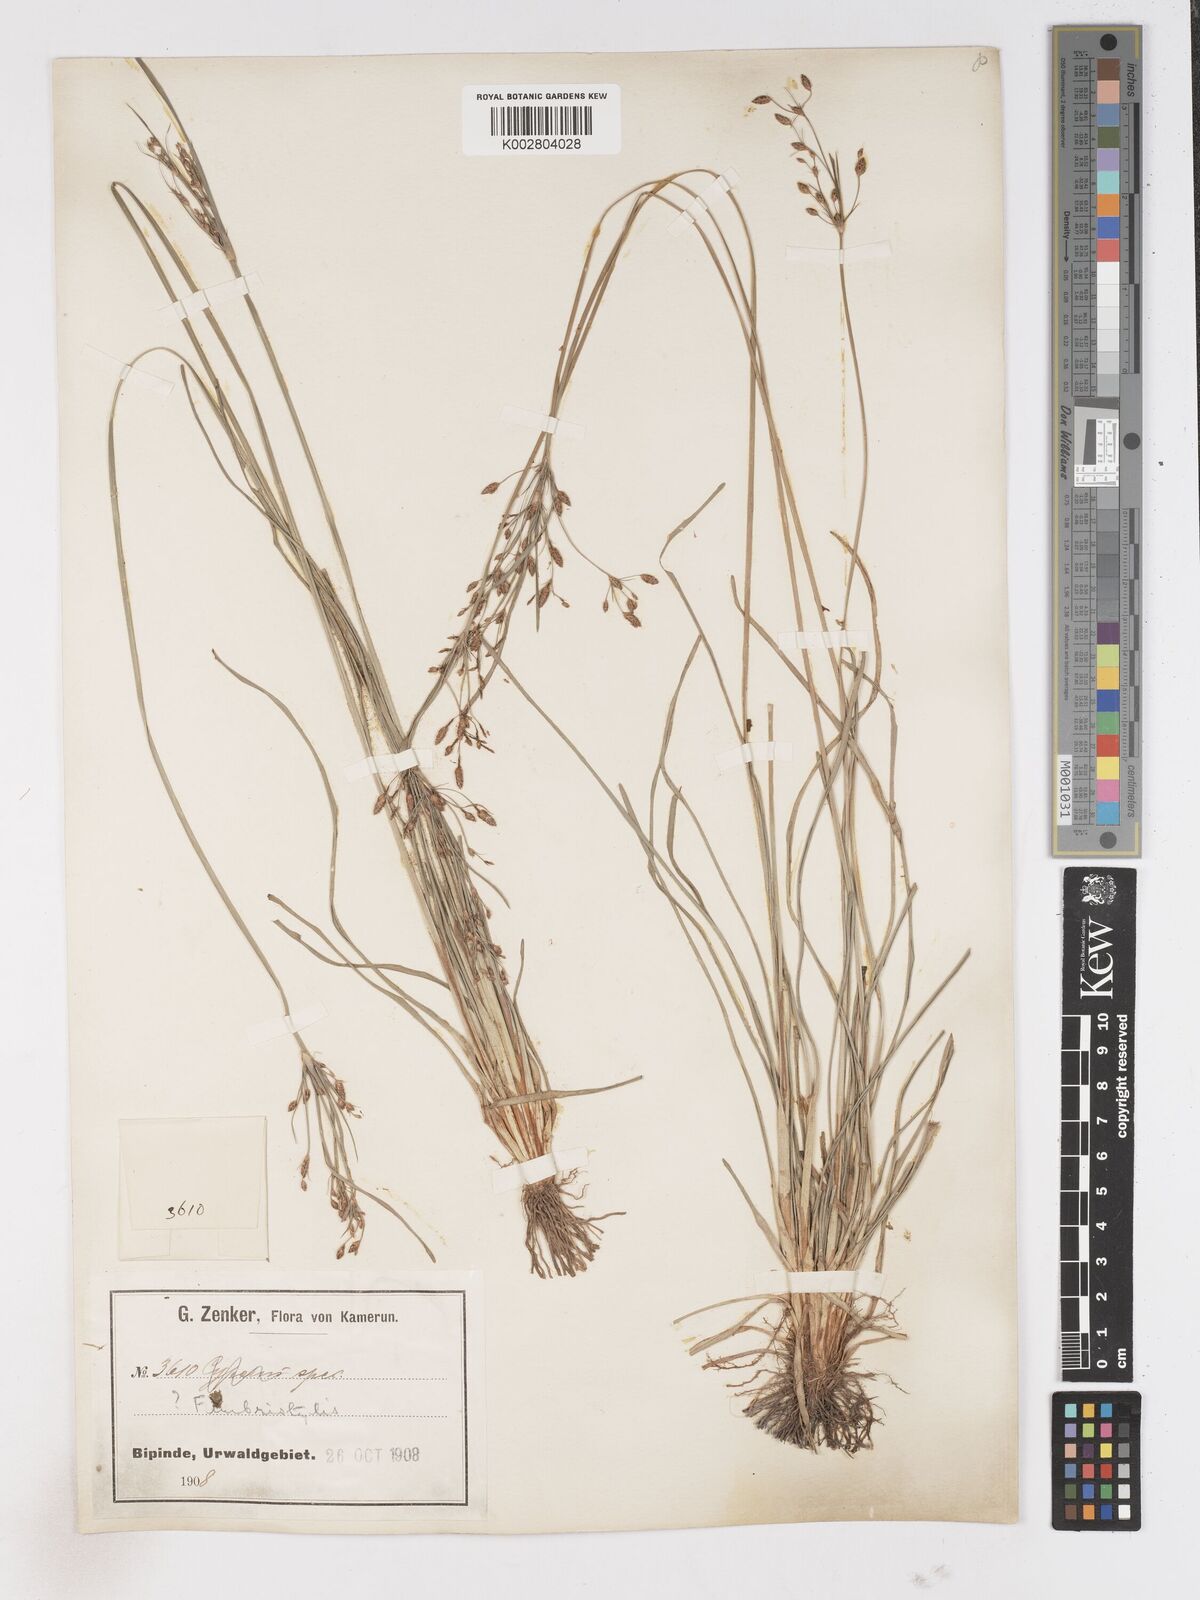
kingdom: Plantae
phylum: Tracheophyta
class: Liliopsida
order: Poales
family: Cyperaceae
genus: Fimbristylis
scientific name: Fimbristylis dichotoma
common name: Forked fimbry
